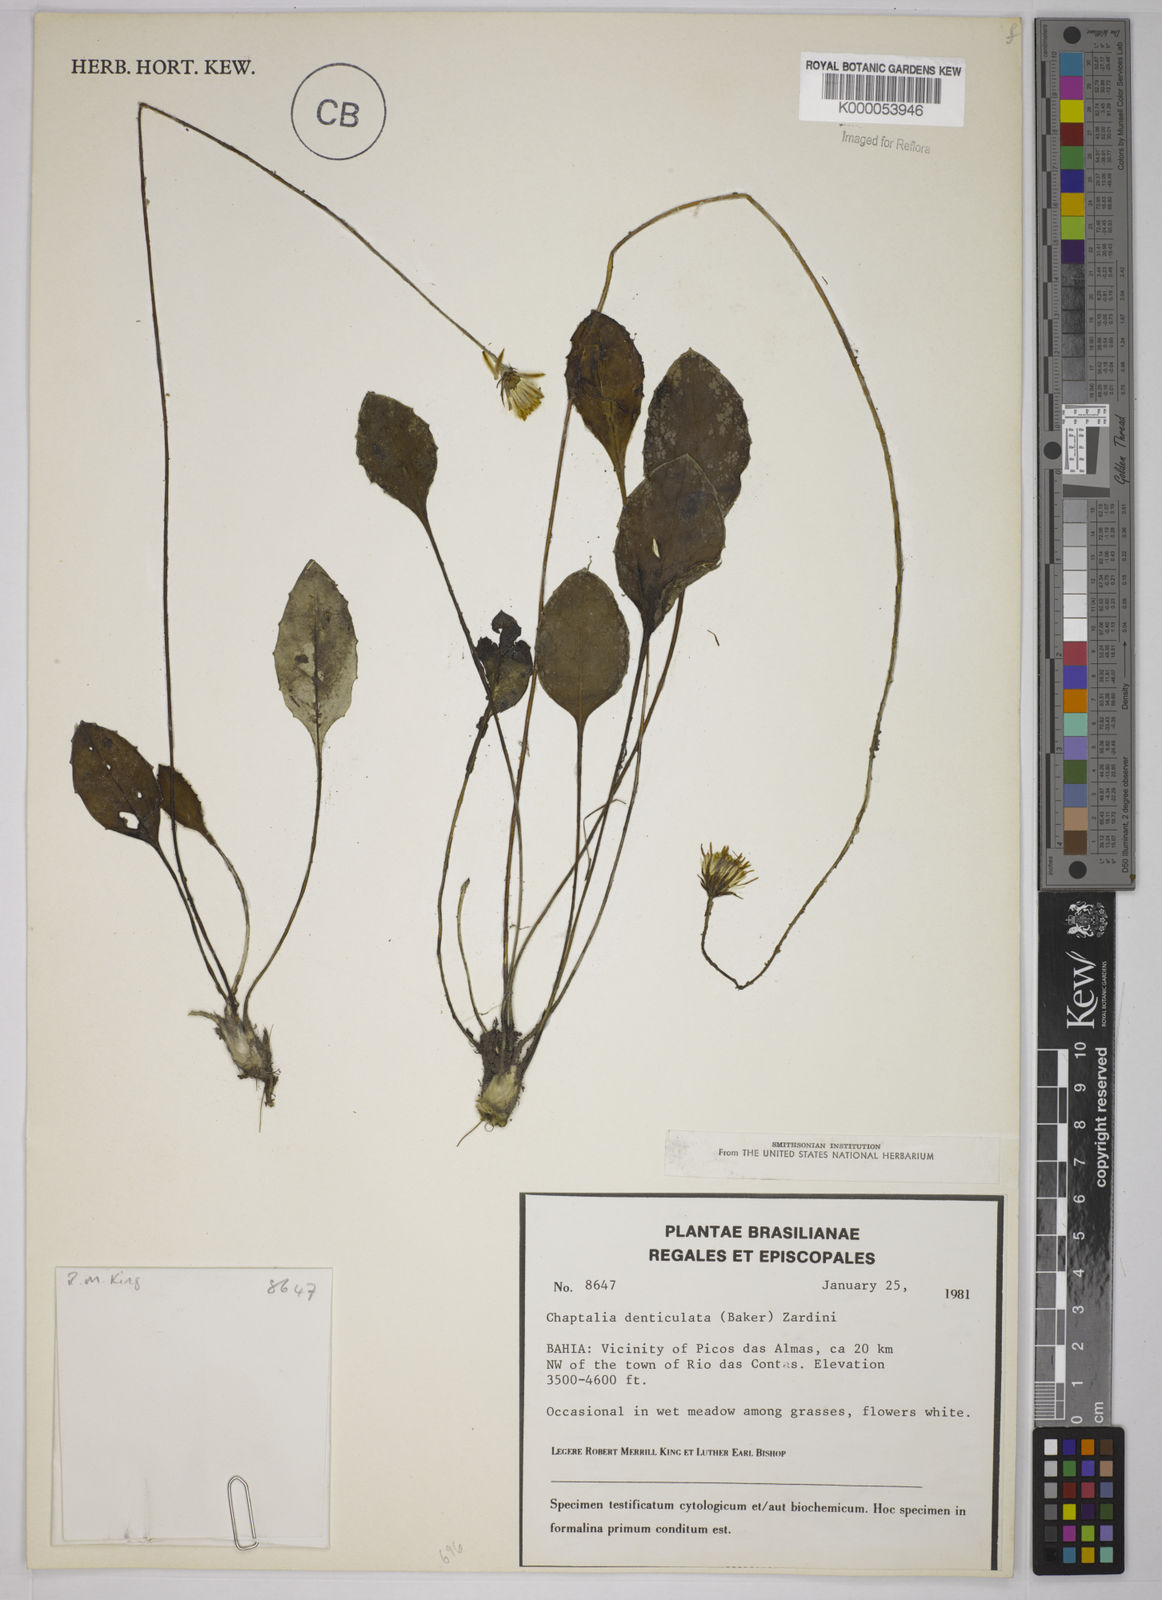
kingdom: Plantae
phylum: Tracheophyta
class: Magnoliopsida
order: Asterales
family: Asteraceae
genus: Chaptalia
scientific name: Chaptalia denticulata
